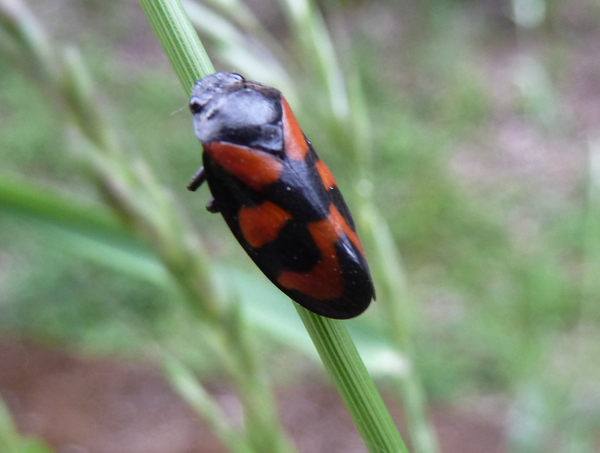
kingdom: Animalia
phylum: Arthropoda
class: Insecta
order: Hemiptera
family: Cercopidae
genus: Cercopis
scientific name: Cercopis vulnerata
